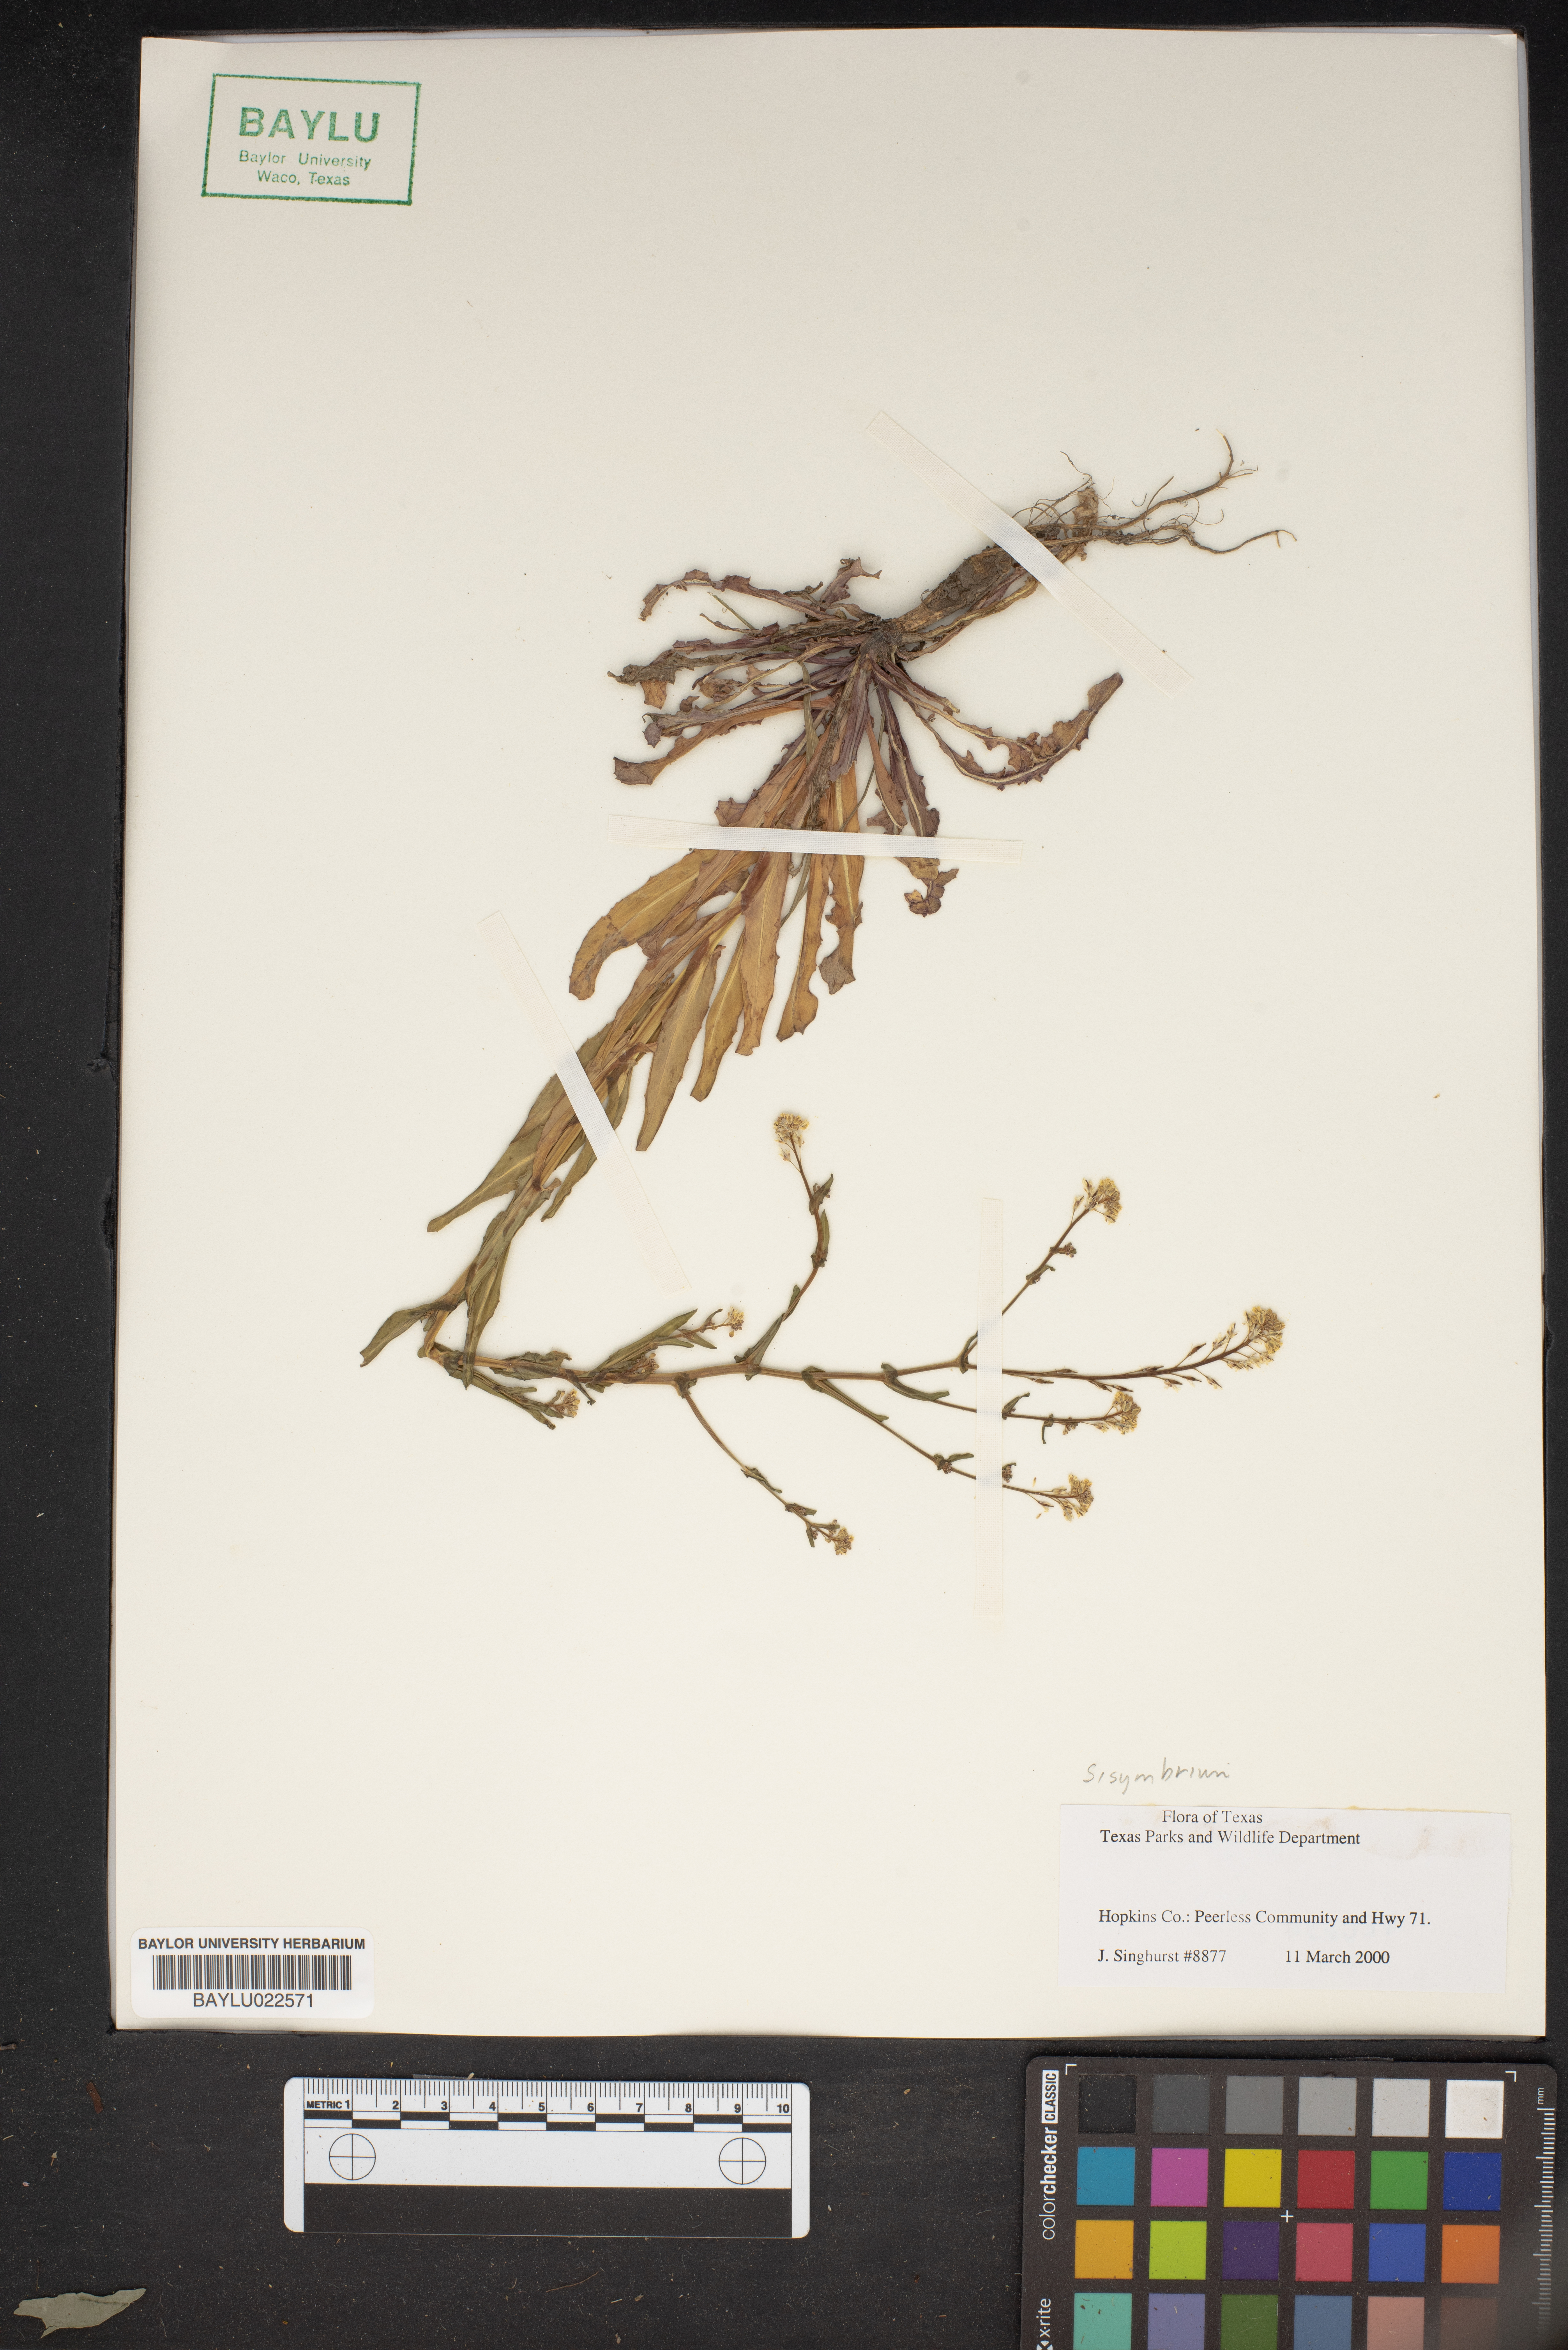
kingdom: Plantae
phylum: Tracheophyta
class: Magnoliopsida
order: Brassicales
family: Brassicaceae
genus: Sisymbrium
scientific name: Sisymbrium
